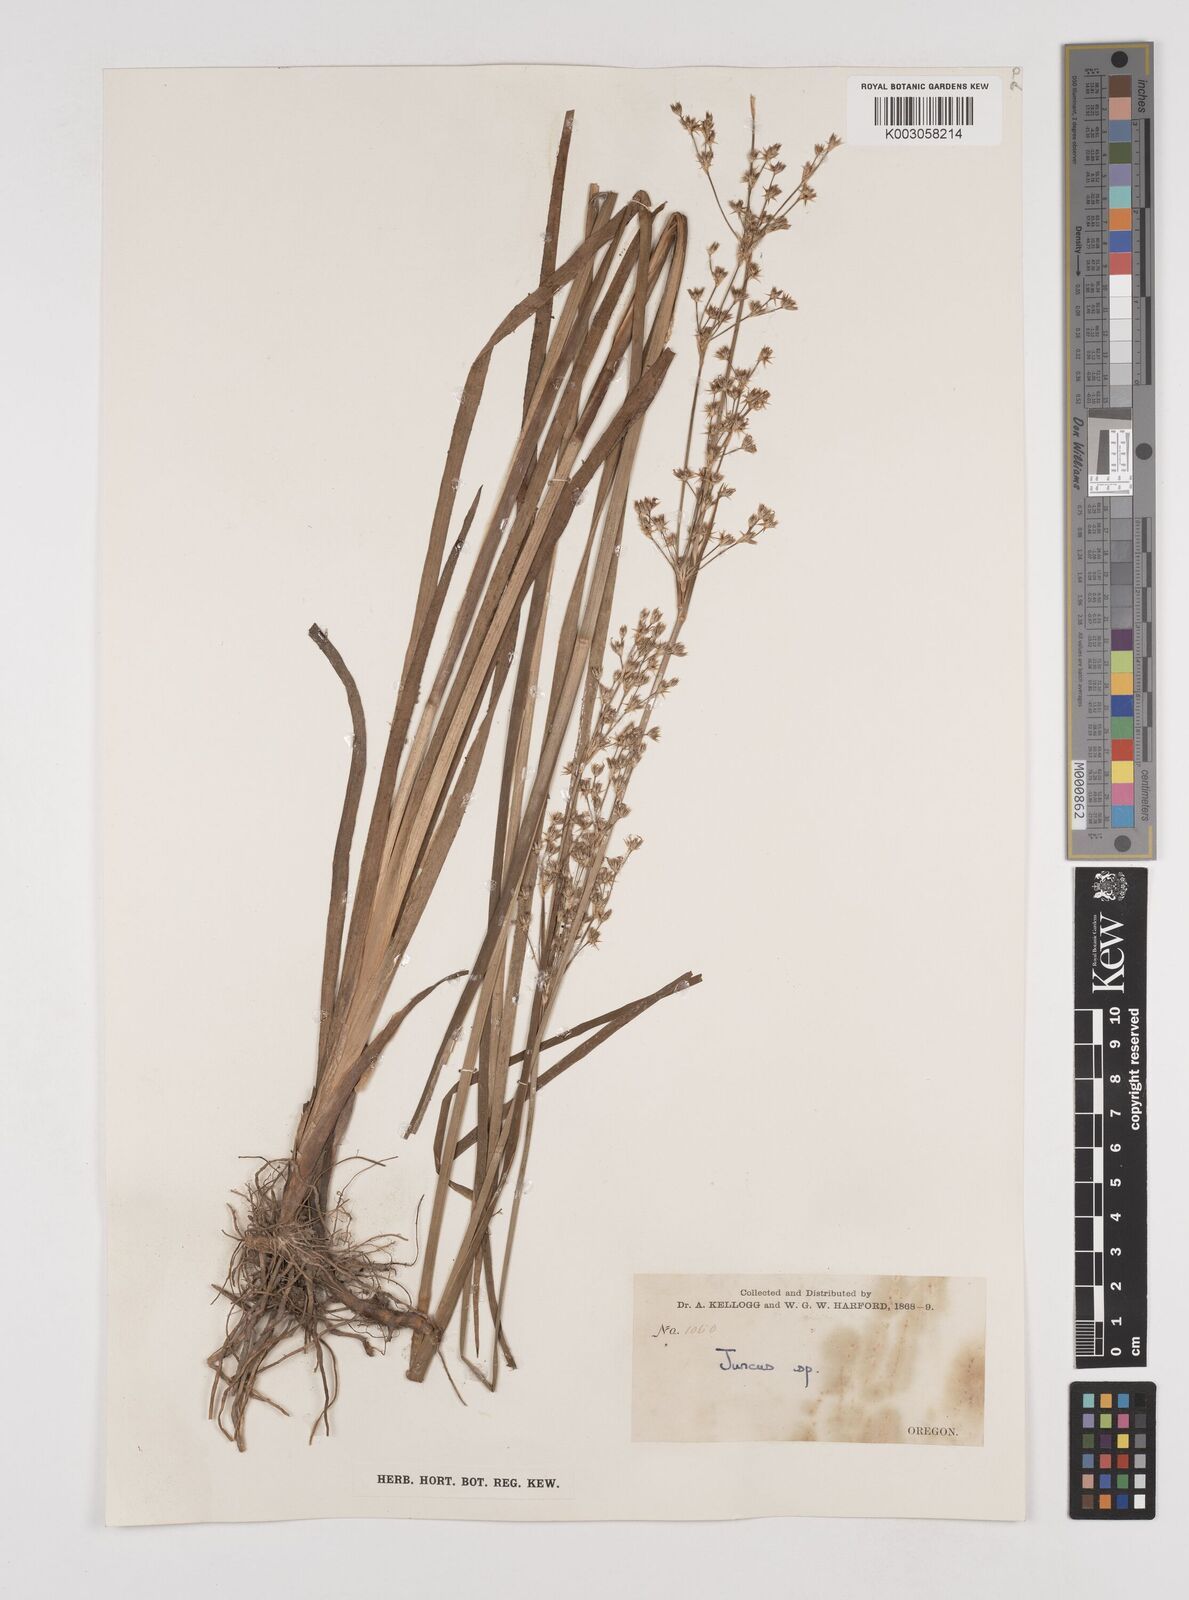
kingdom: Plantae
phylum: Tracheophyta
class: Liliopsida
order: Poales
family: Juncaceae
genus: Juncus
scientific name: Juncus
